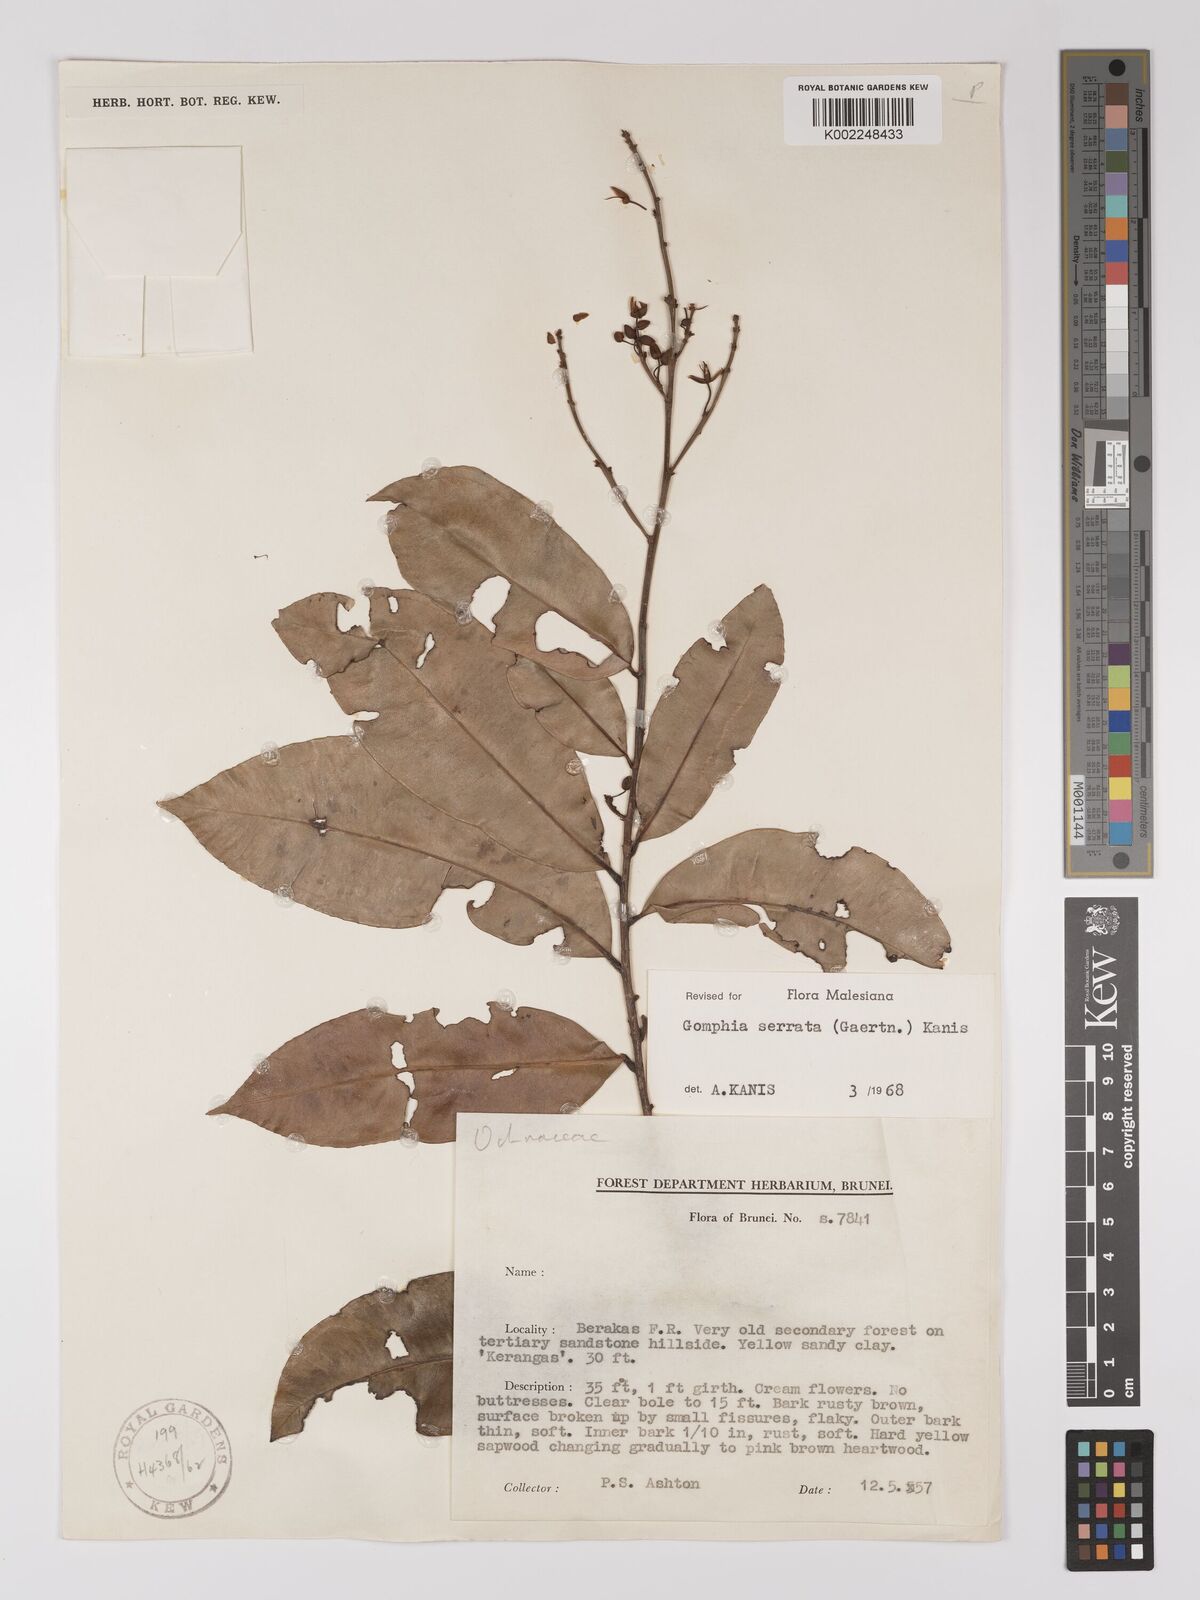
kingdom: Plantae
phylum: Tracheophyta
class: Magnoliopsida
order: Malpighiales
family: Ochnaceae
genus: Gomphia
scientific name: Gomphia serrata
